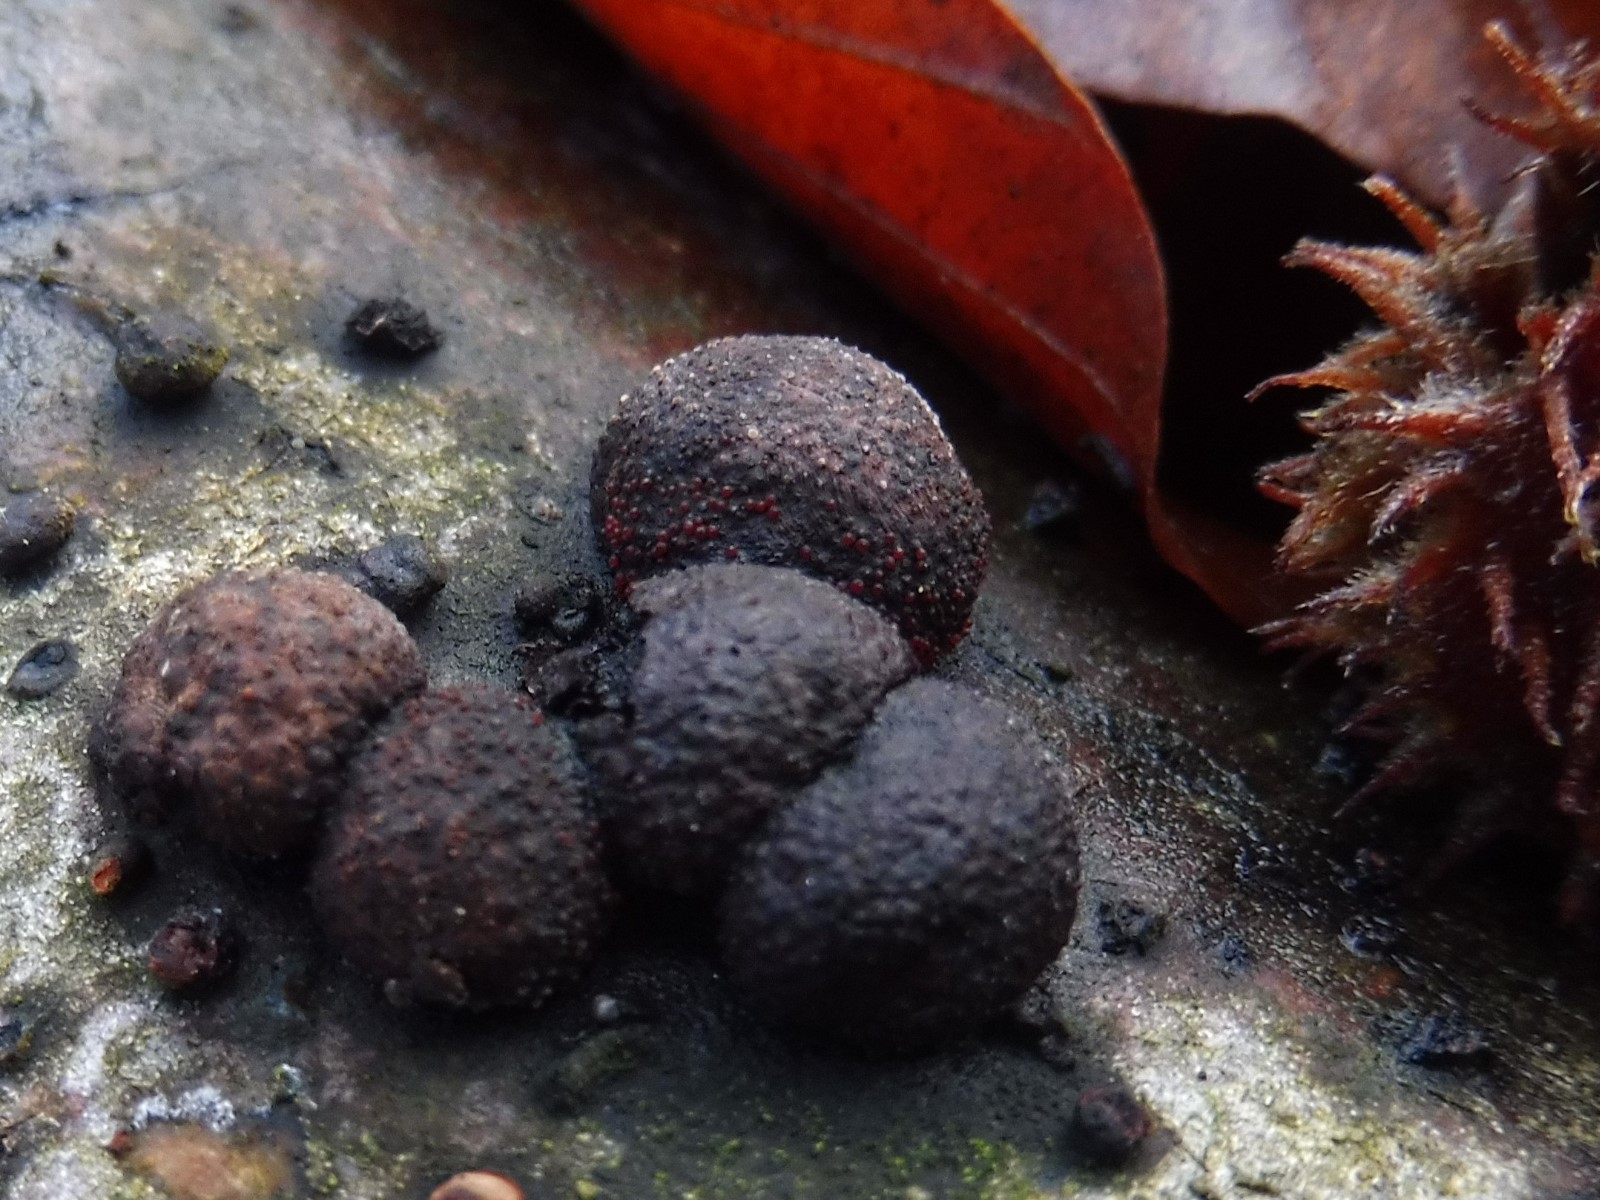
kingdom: Fungi
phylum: Ascomycota
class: Sordariomycetes
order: Hypocreales
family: Nectriaceae
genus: Cosmospora
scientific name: Cosmospora arxii
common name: kuljordbær-cinnobersvamp
